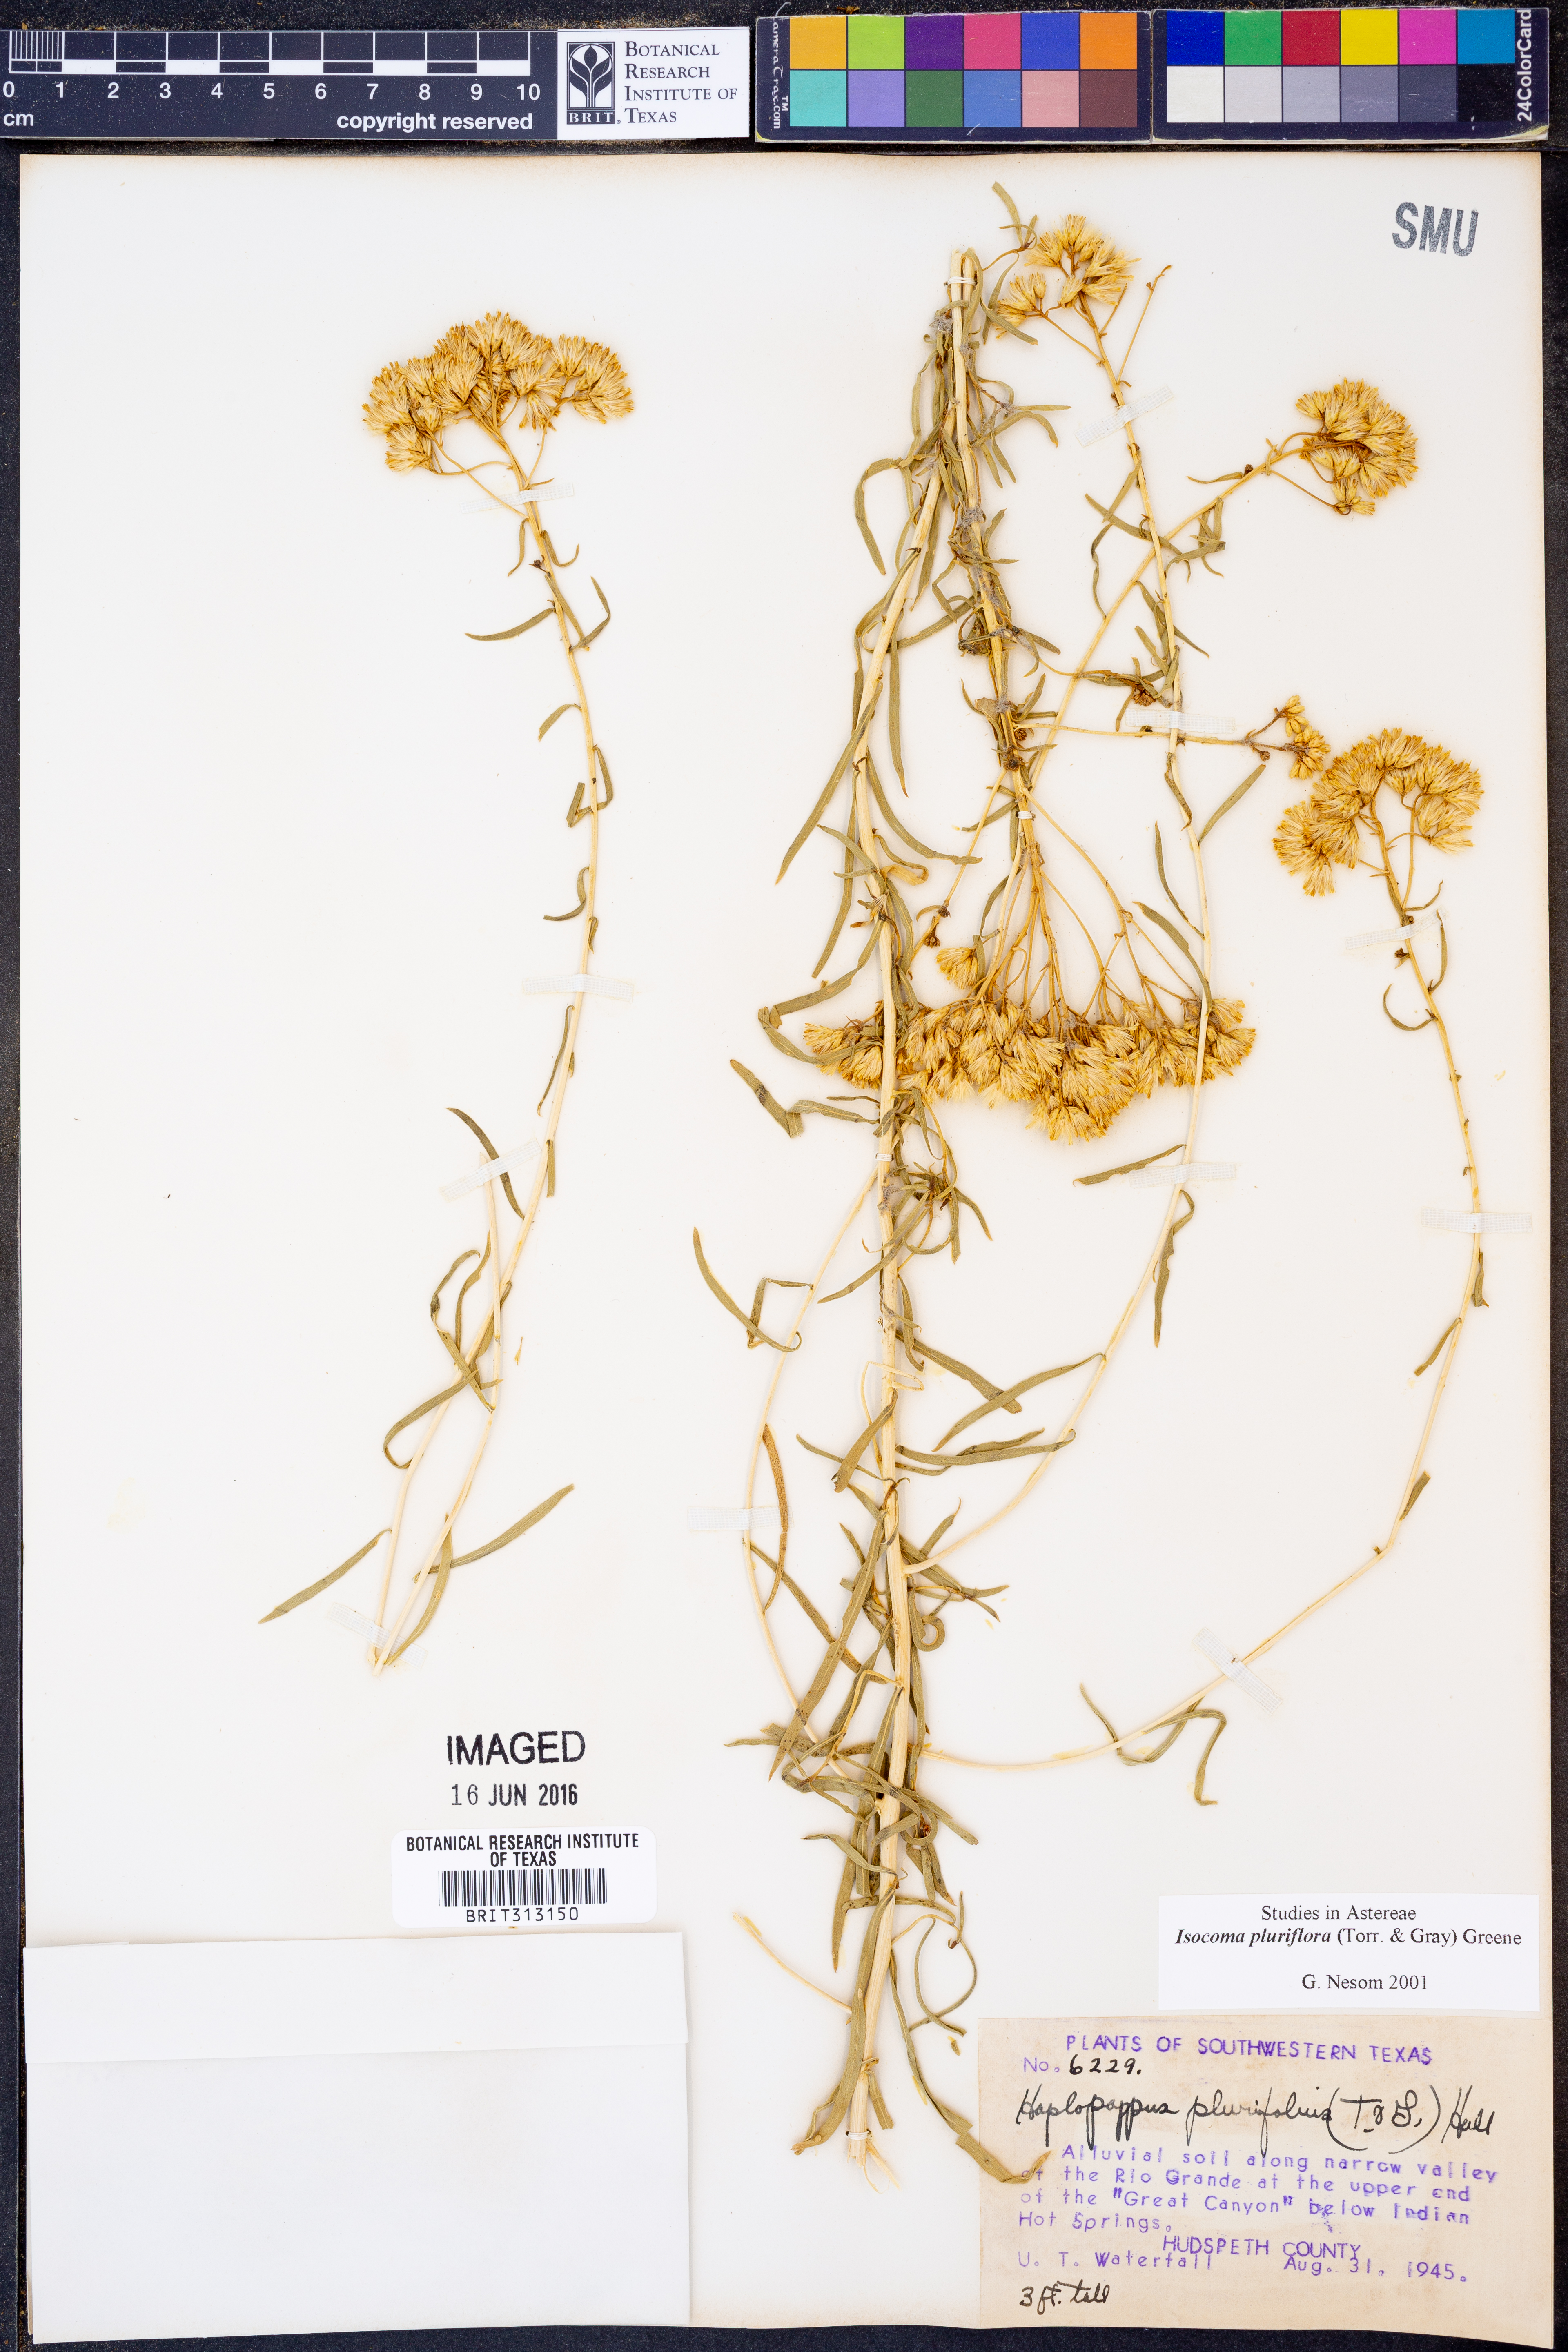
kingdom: Plantae
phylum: Tracheophyta
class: Magnoliopsida
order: Asterales
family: Asteraceae
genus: Isocoma
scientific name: Isocoma pluriflora
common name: Southern jimmyweed
